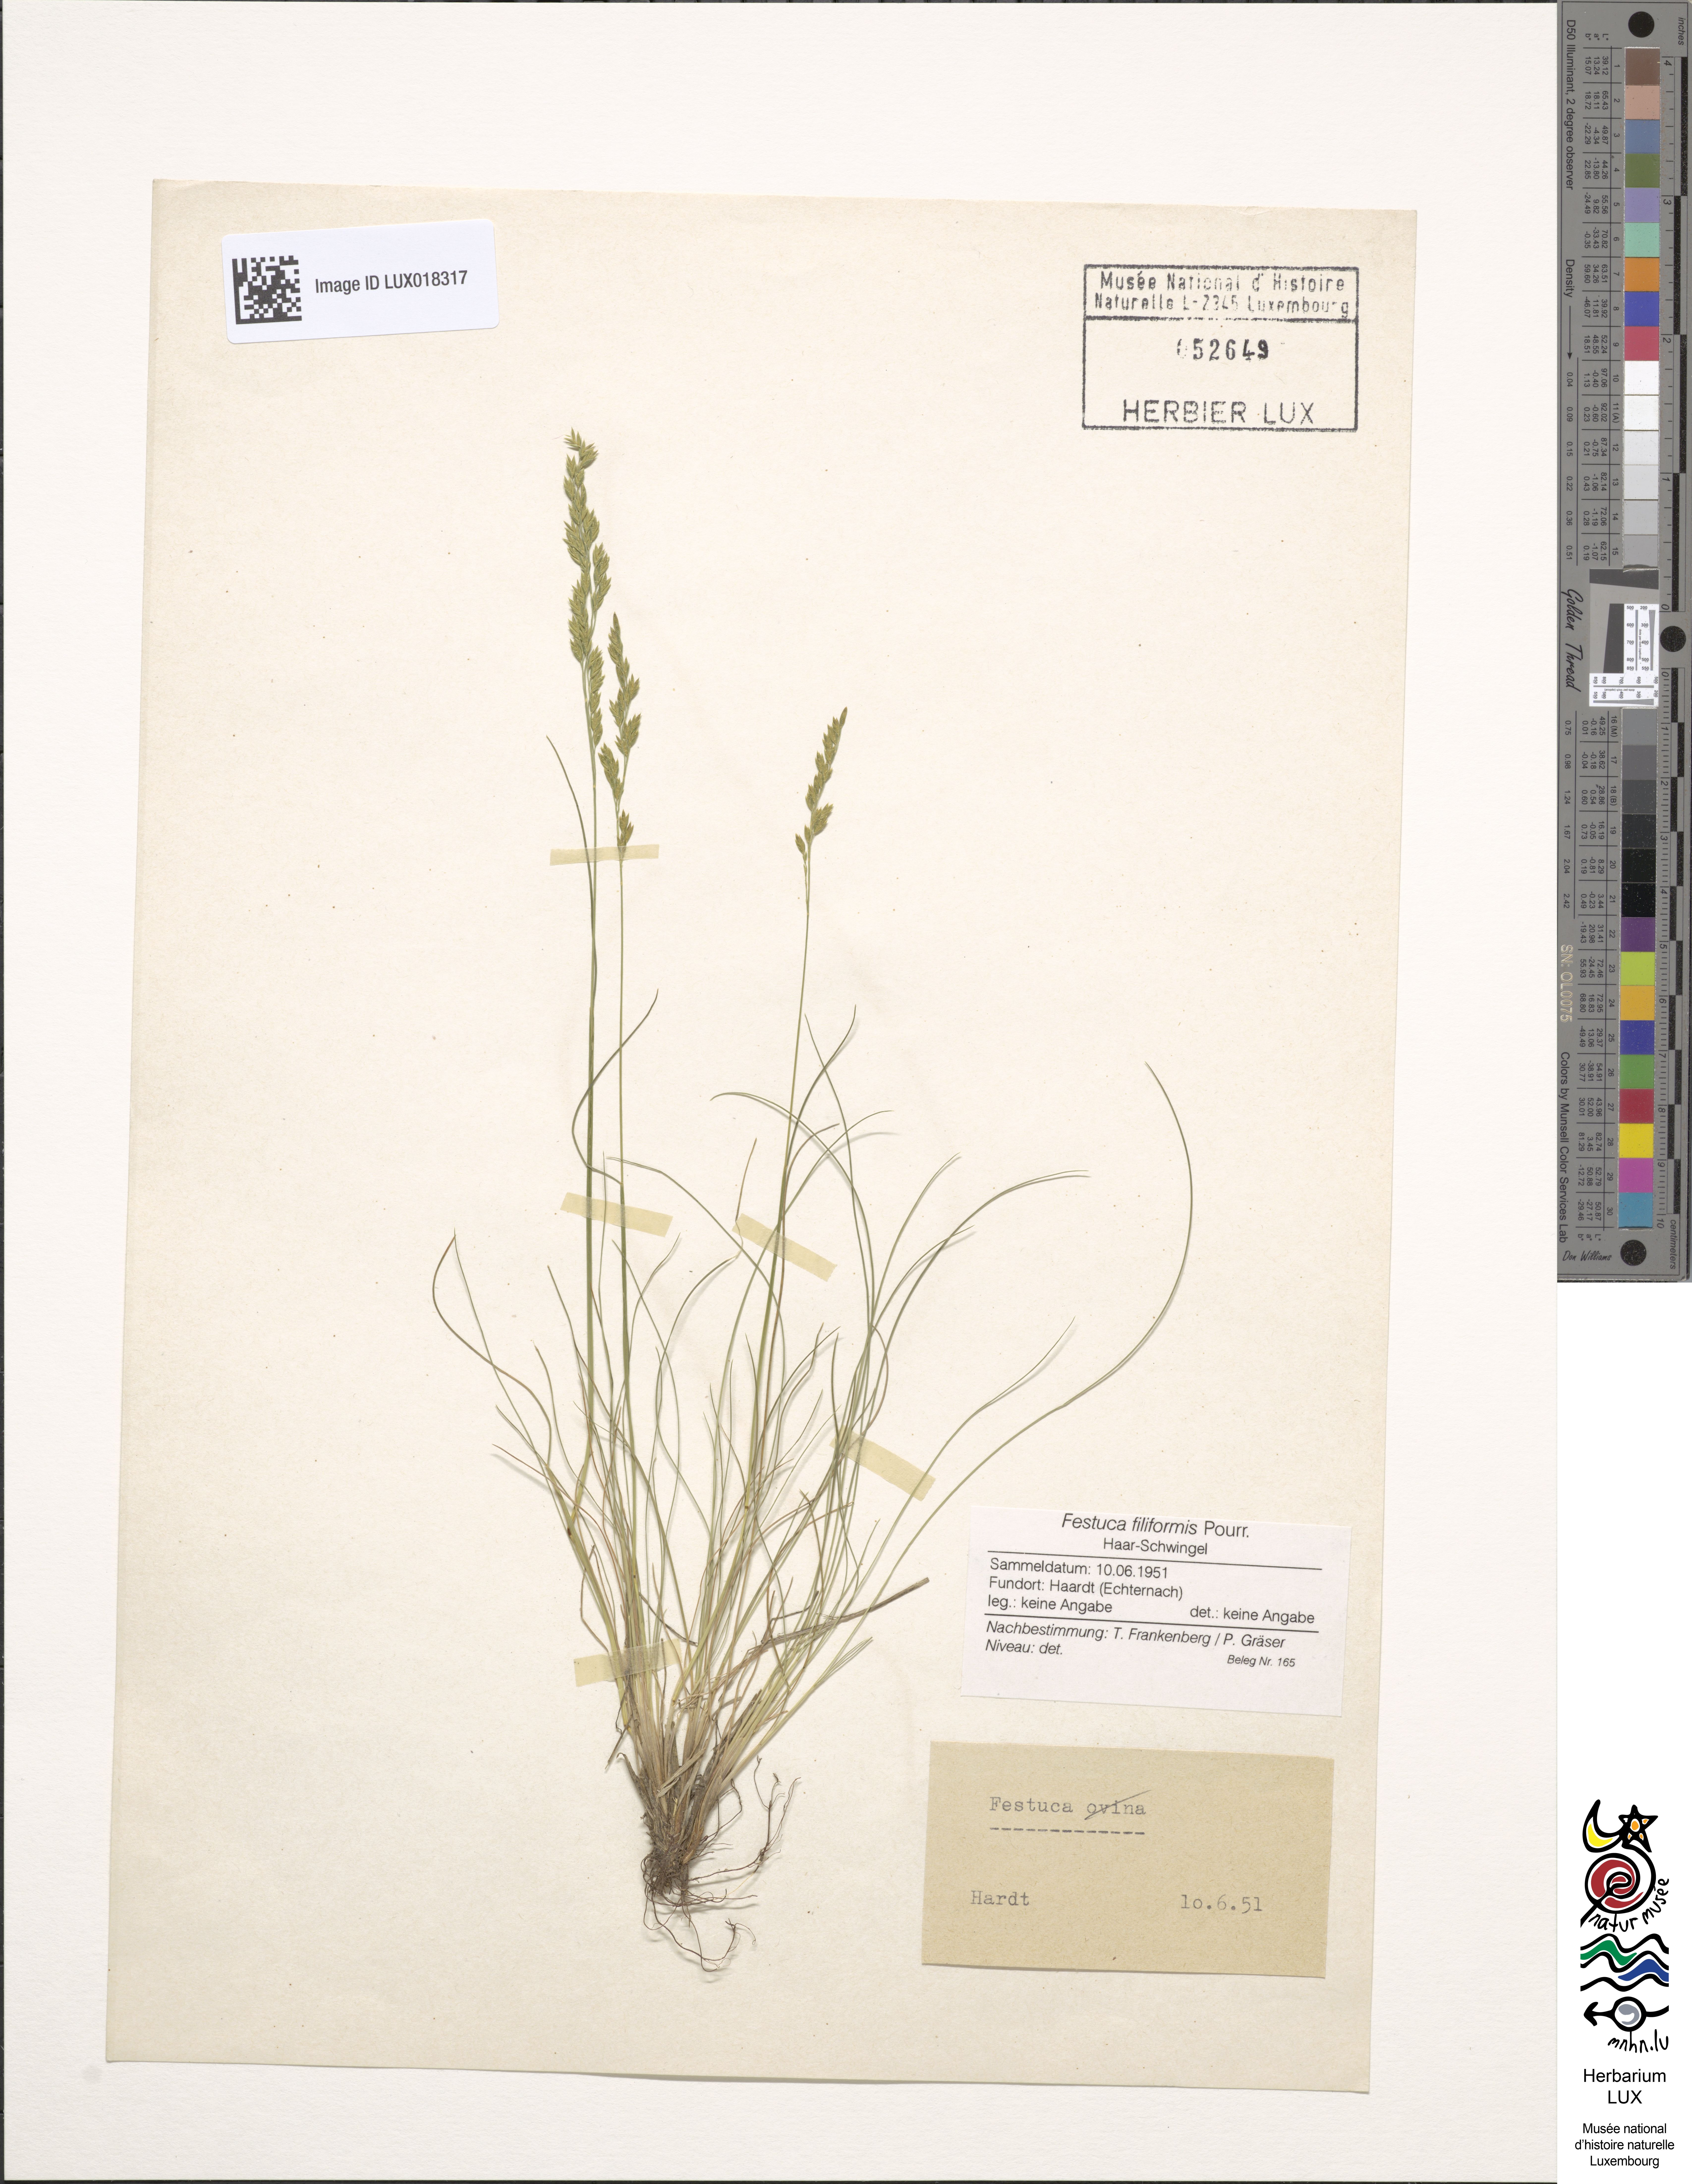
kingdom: Plantae
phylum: Tracheophyta
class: Liliopsida
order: Poales
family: Poaceae
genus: Festuca
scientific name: Festuca filiformis
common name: Fine-leaved sheep's-fescue
